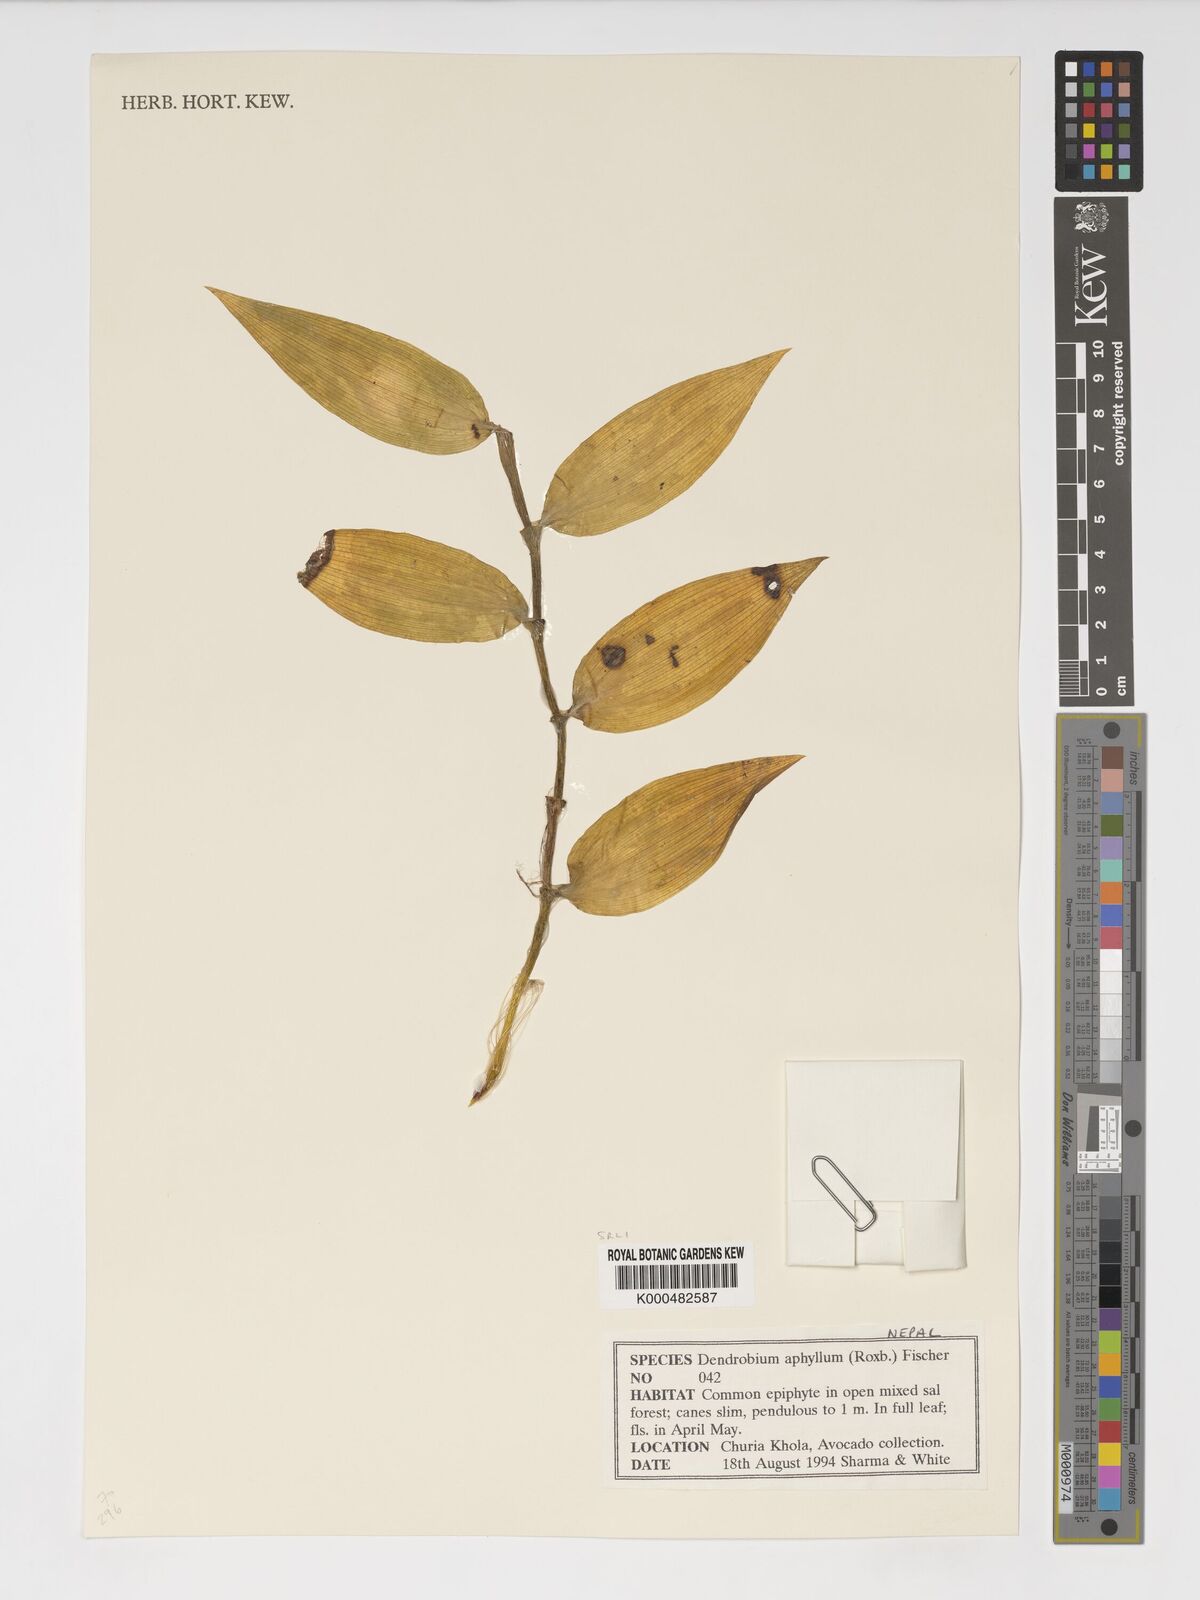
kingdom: Plantae
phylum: Tracheophyta
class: Liliopsida
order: Asparagales
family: Orchidaceae
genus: Dendrobium
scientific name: Dendrobium macrostachyum
